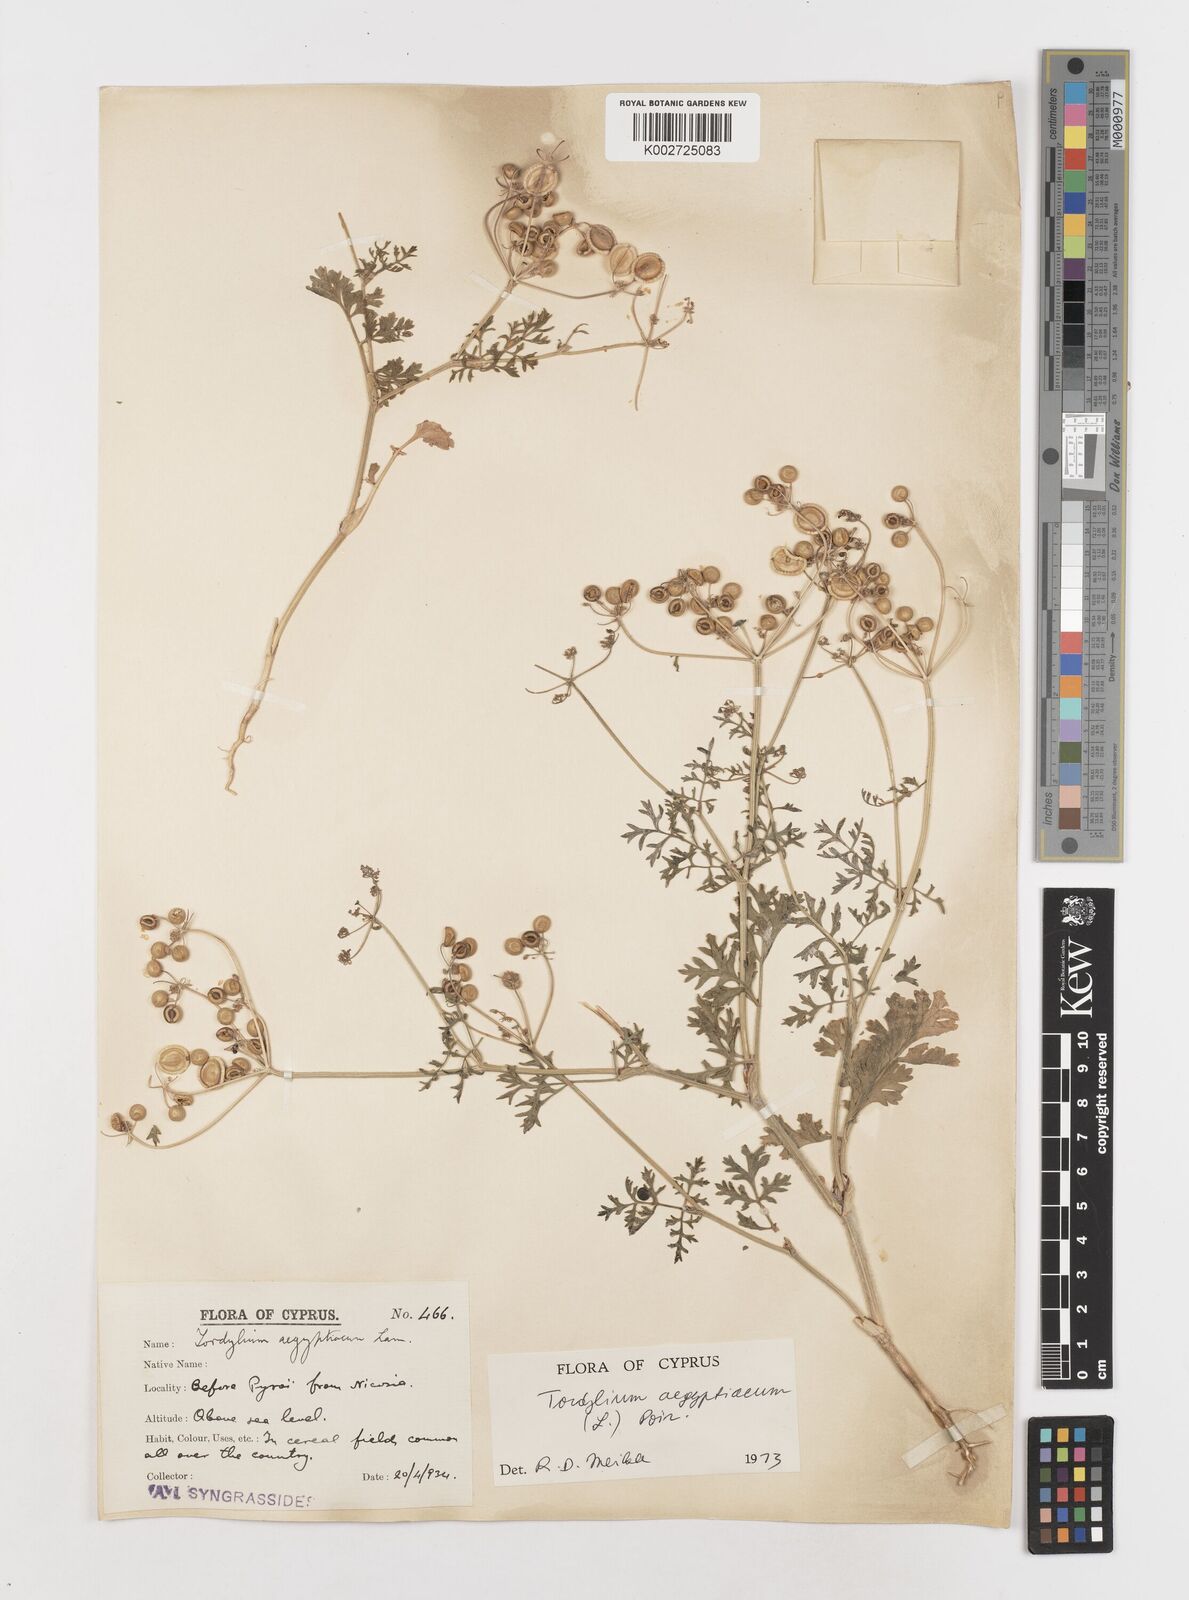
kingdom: Plantae
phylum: Tracheophyta
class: Magnoliopsida
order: Apiales
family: Apiaceae
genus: Tordylium
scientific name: Tordylium aegyptiacum
